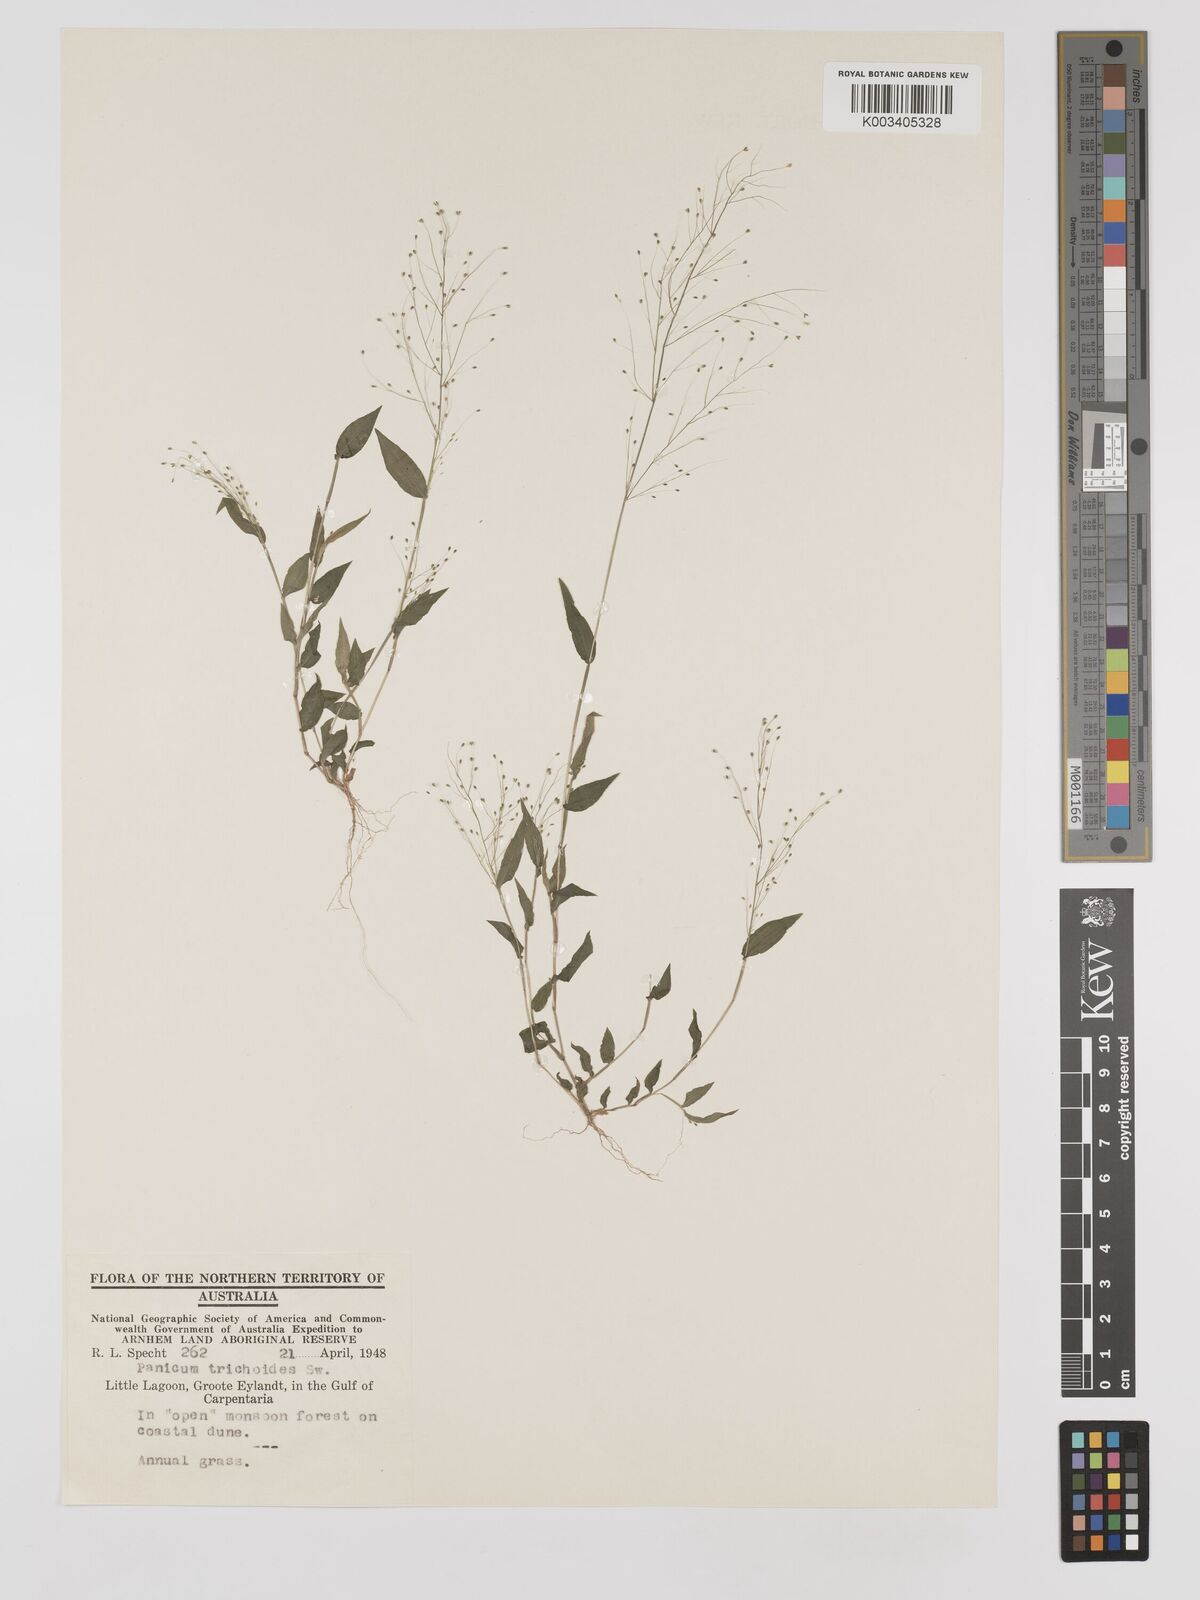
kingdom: Plantae
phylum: Tracheophyta
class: Liliopsida
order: Poales
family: Poaceae
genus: Panicum
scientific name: Panicum trichoides
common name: Tickle grass
